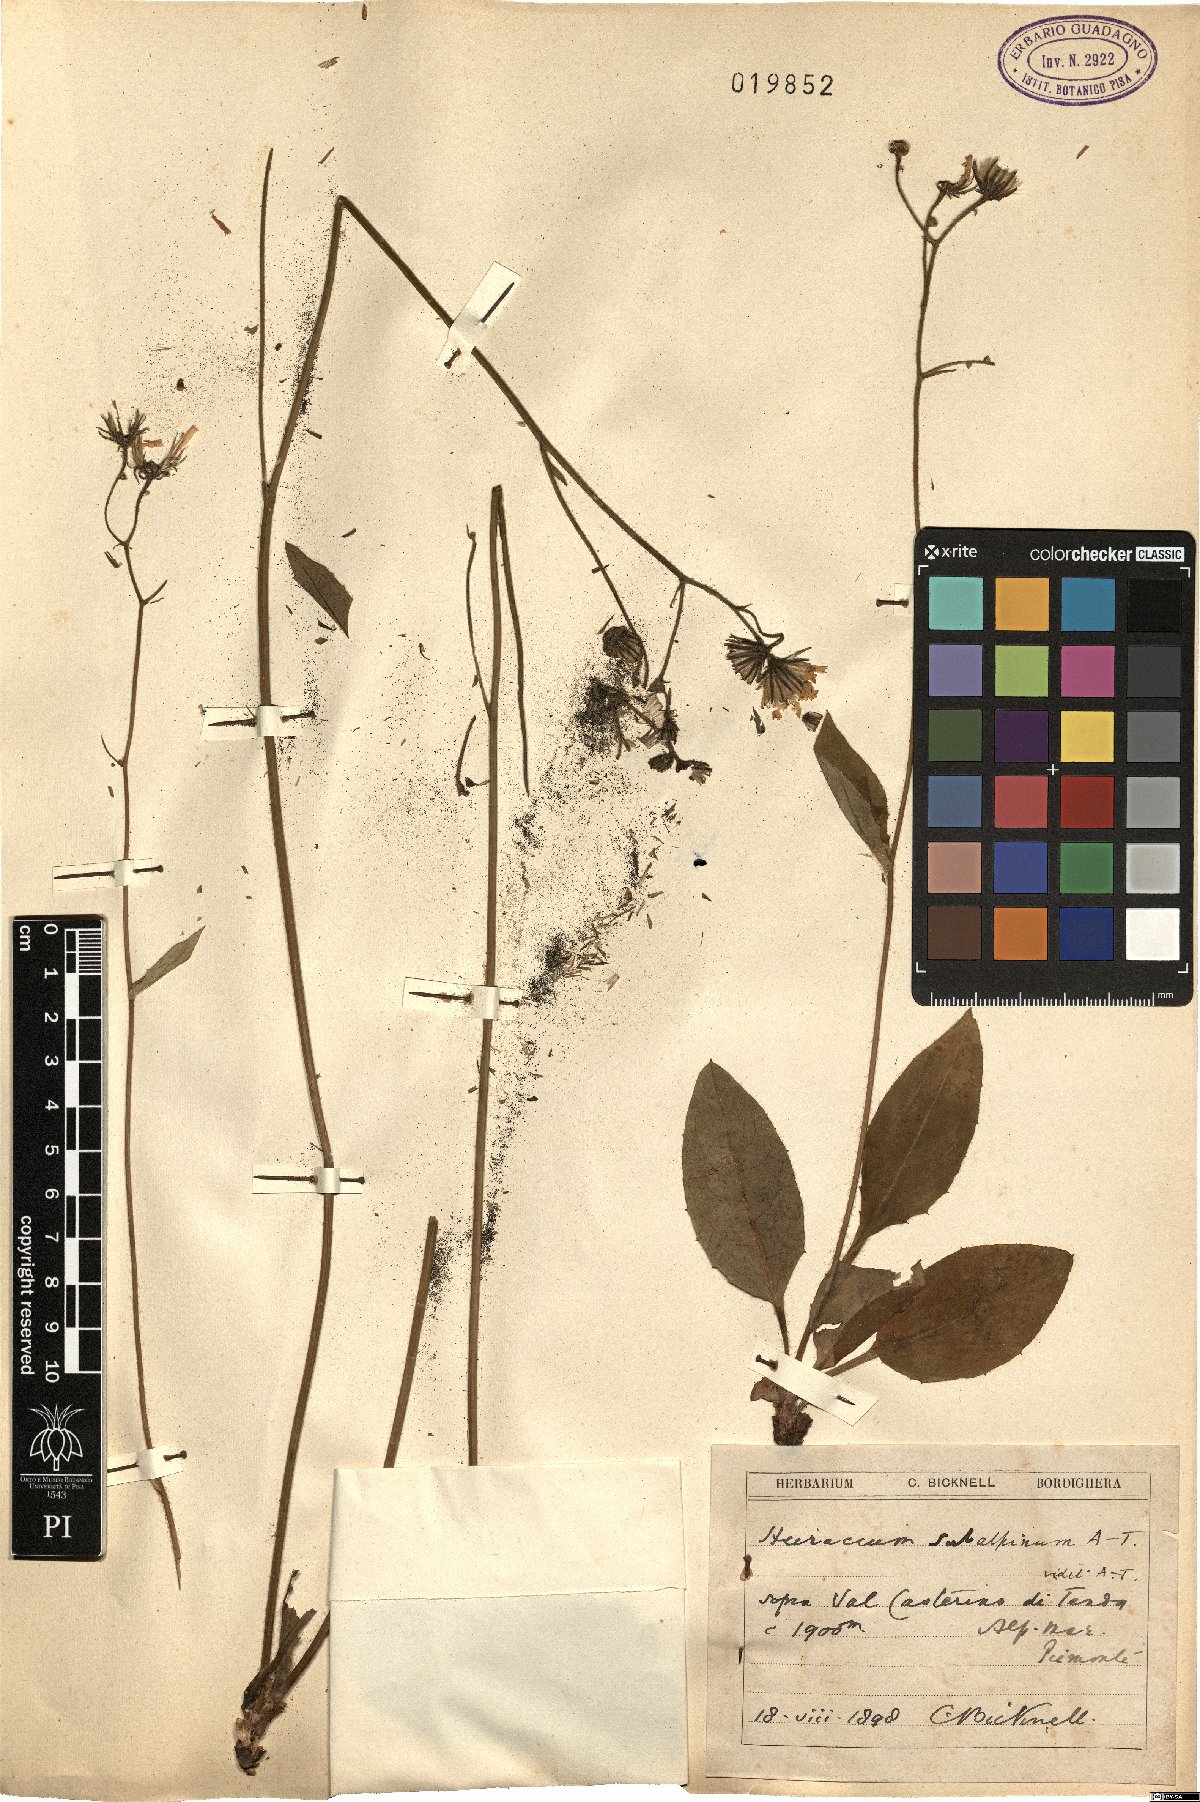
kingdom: Plantae
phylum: Tracheophyta
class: Magnoliopsida
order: Asterales
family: Asteraceae
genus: Hieracium
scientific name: Hieracium umbrosum
